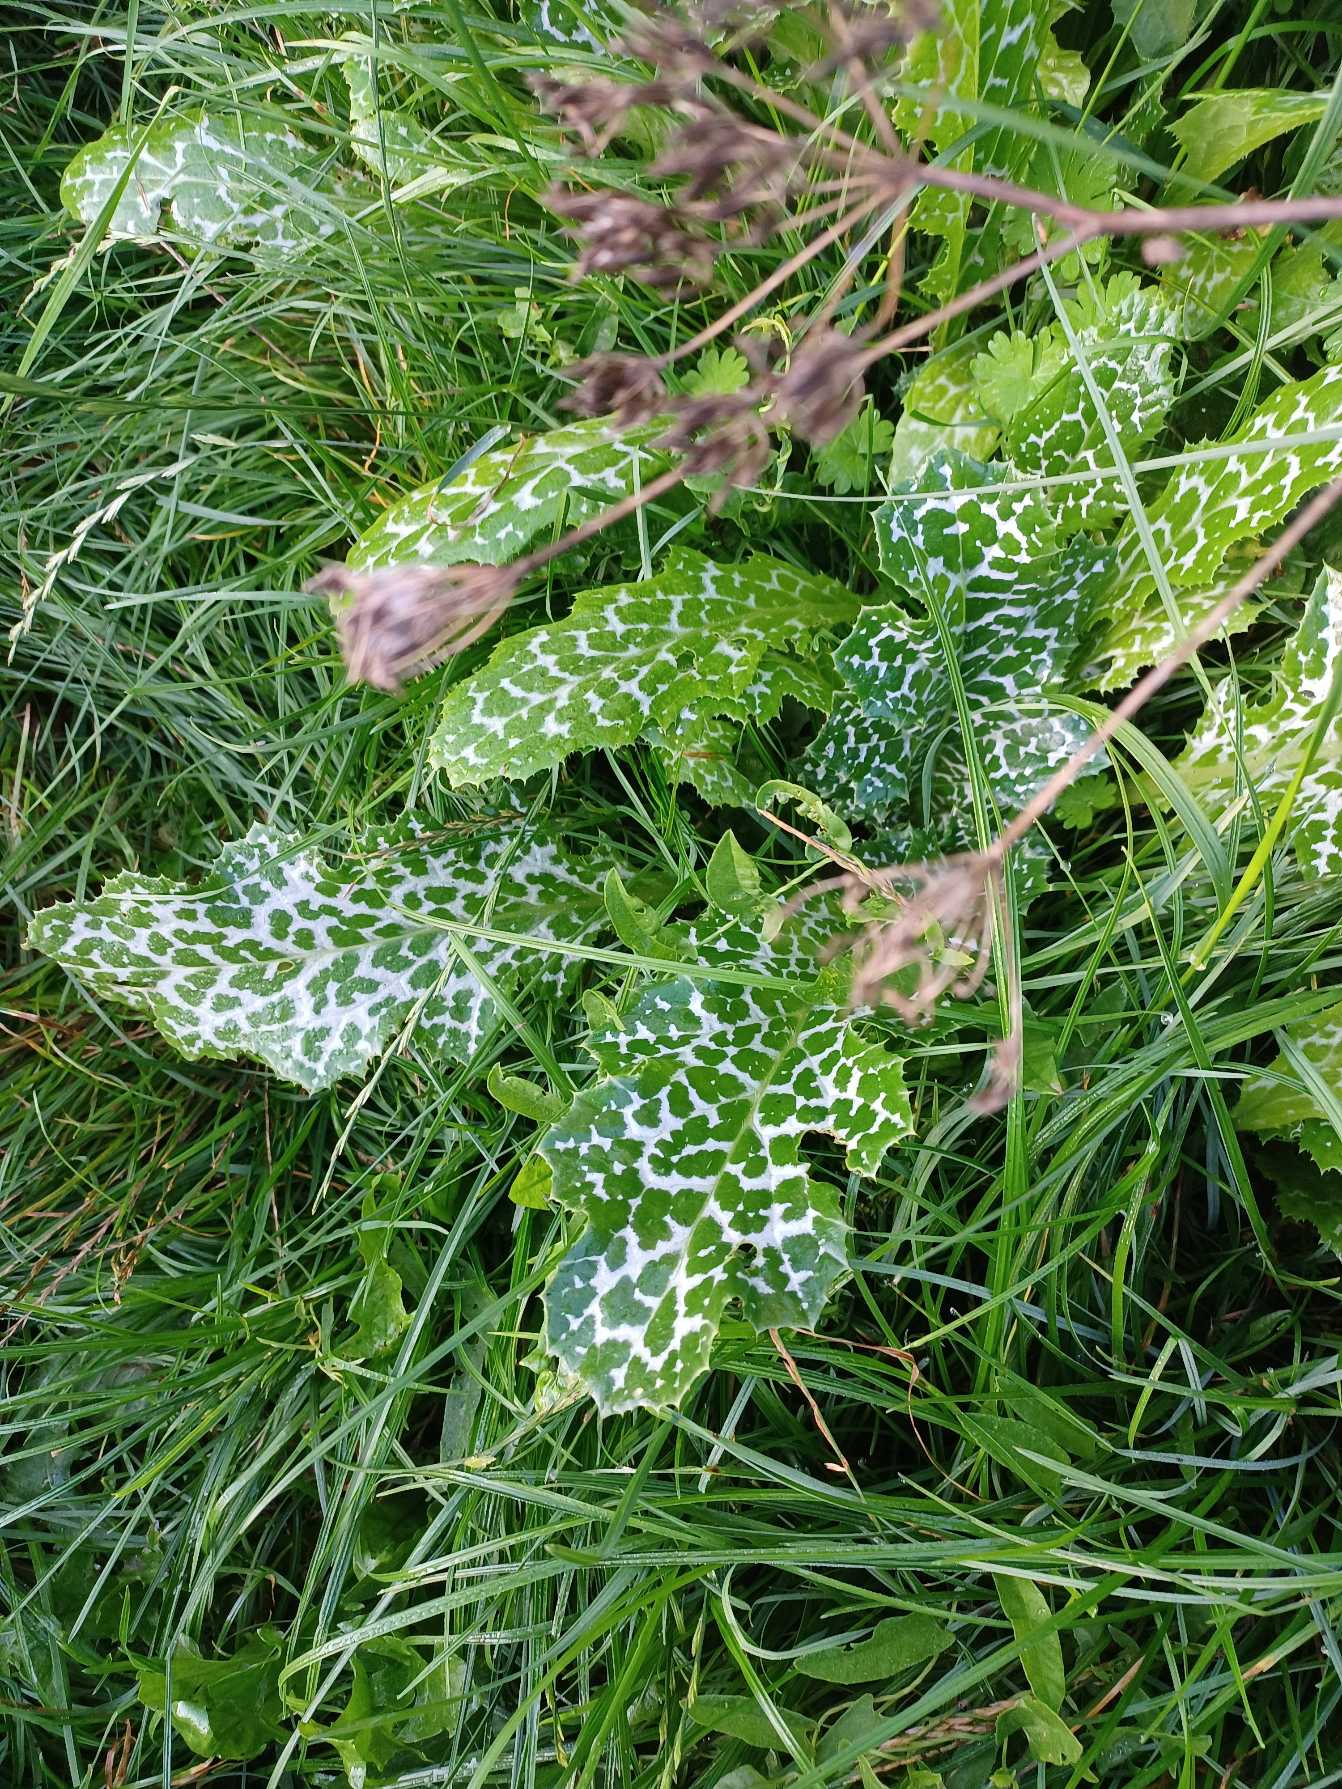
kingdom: Plantae
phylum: Tracheophyta
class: Magnoliopsida
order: Asterales
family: Asteraceae
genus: Silybum
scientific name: Silybum marianum
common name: Marietidsel
